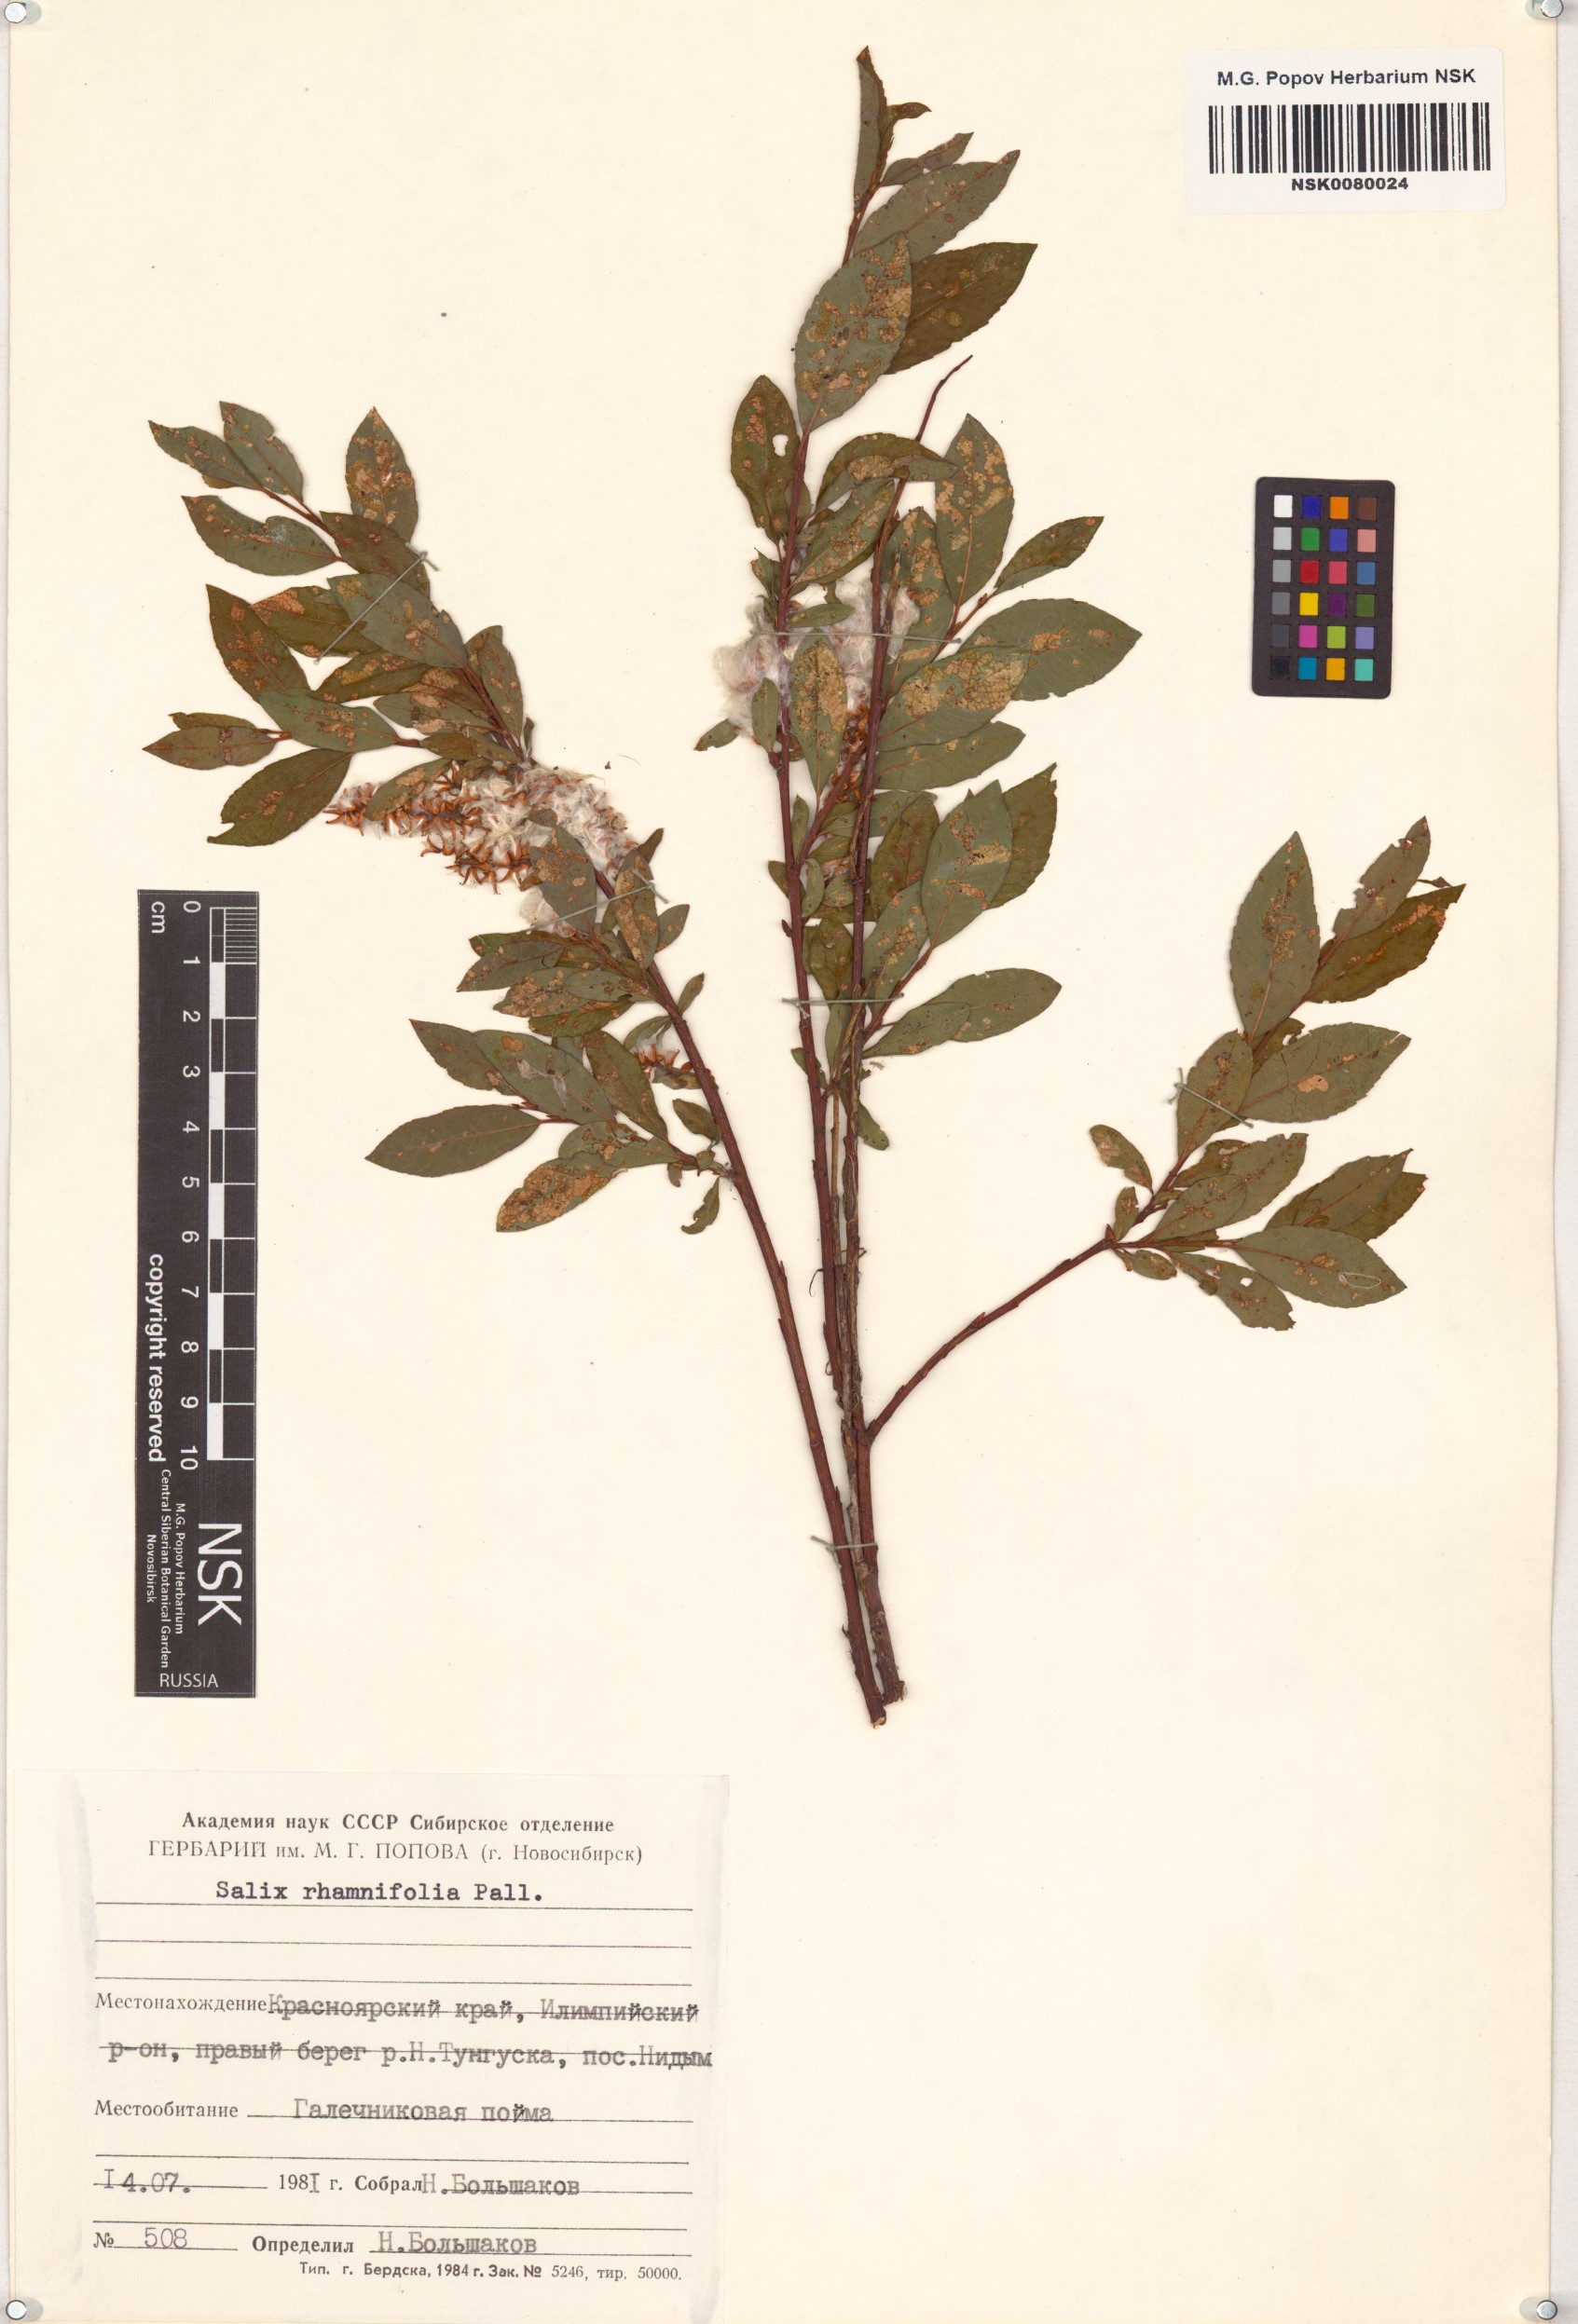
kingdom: Plantae
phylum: Tracheophyta
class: Magnoliopsida
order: Malpighiales
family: Salicaceae
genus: Salix
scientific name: Salix rhamnifolia
